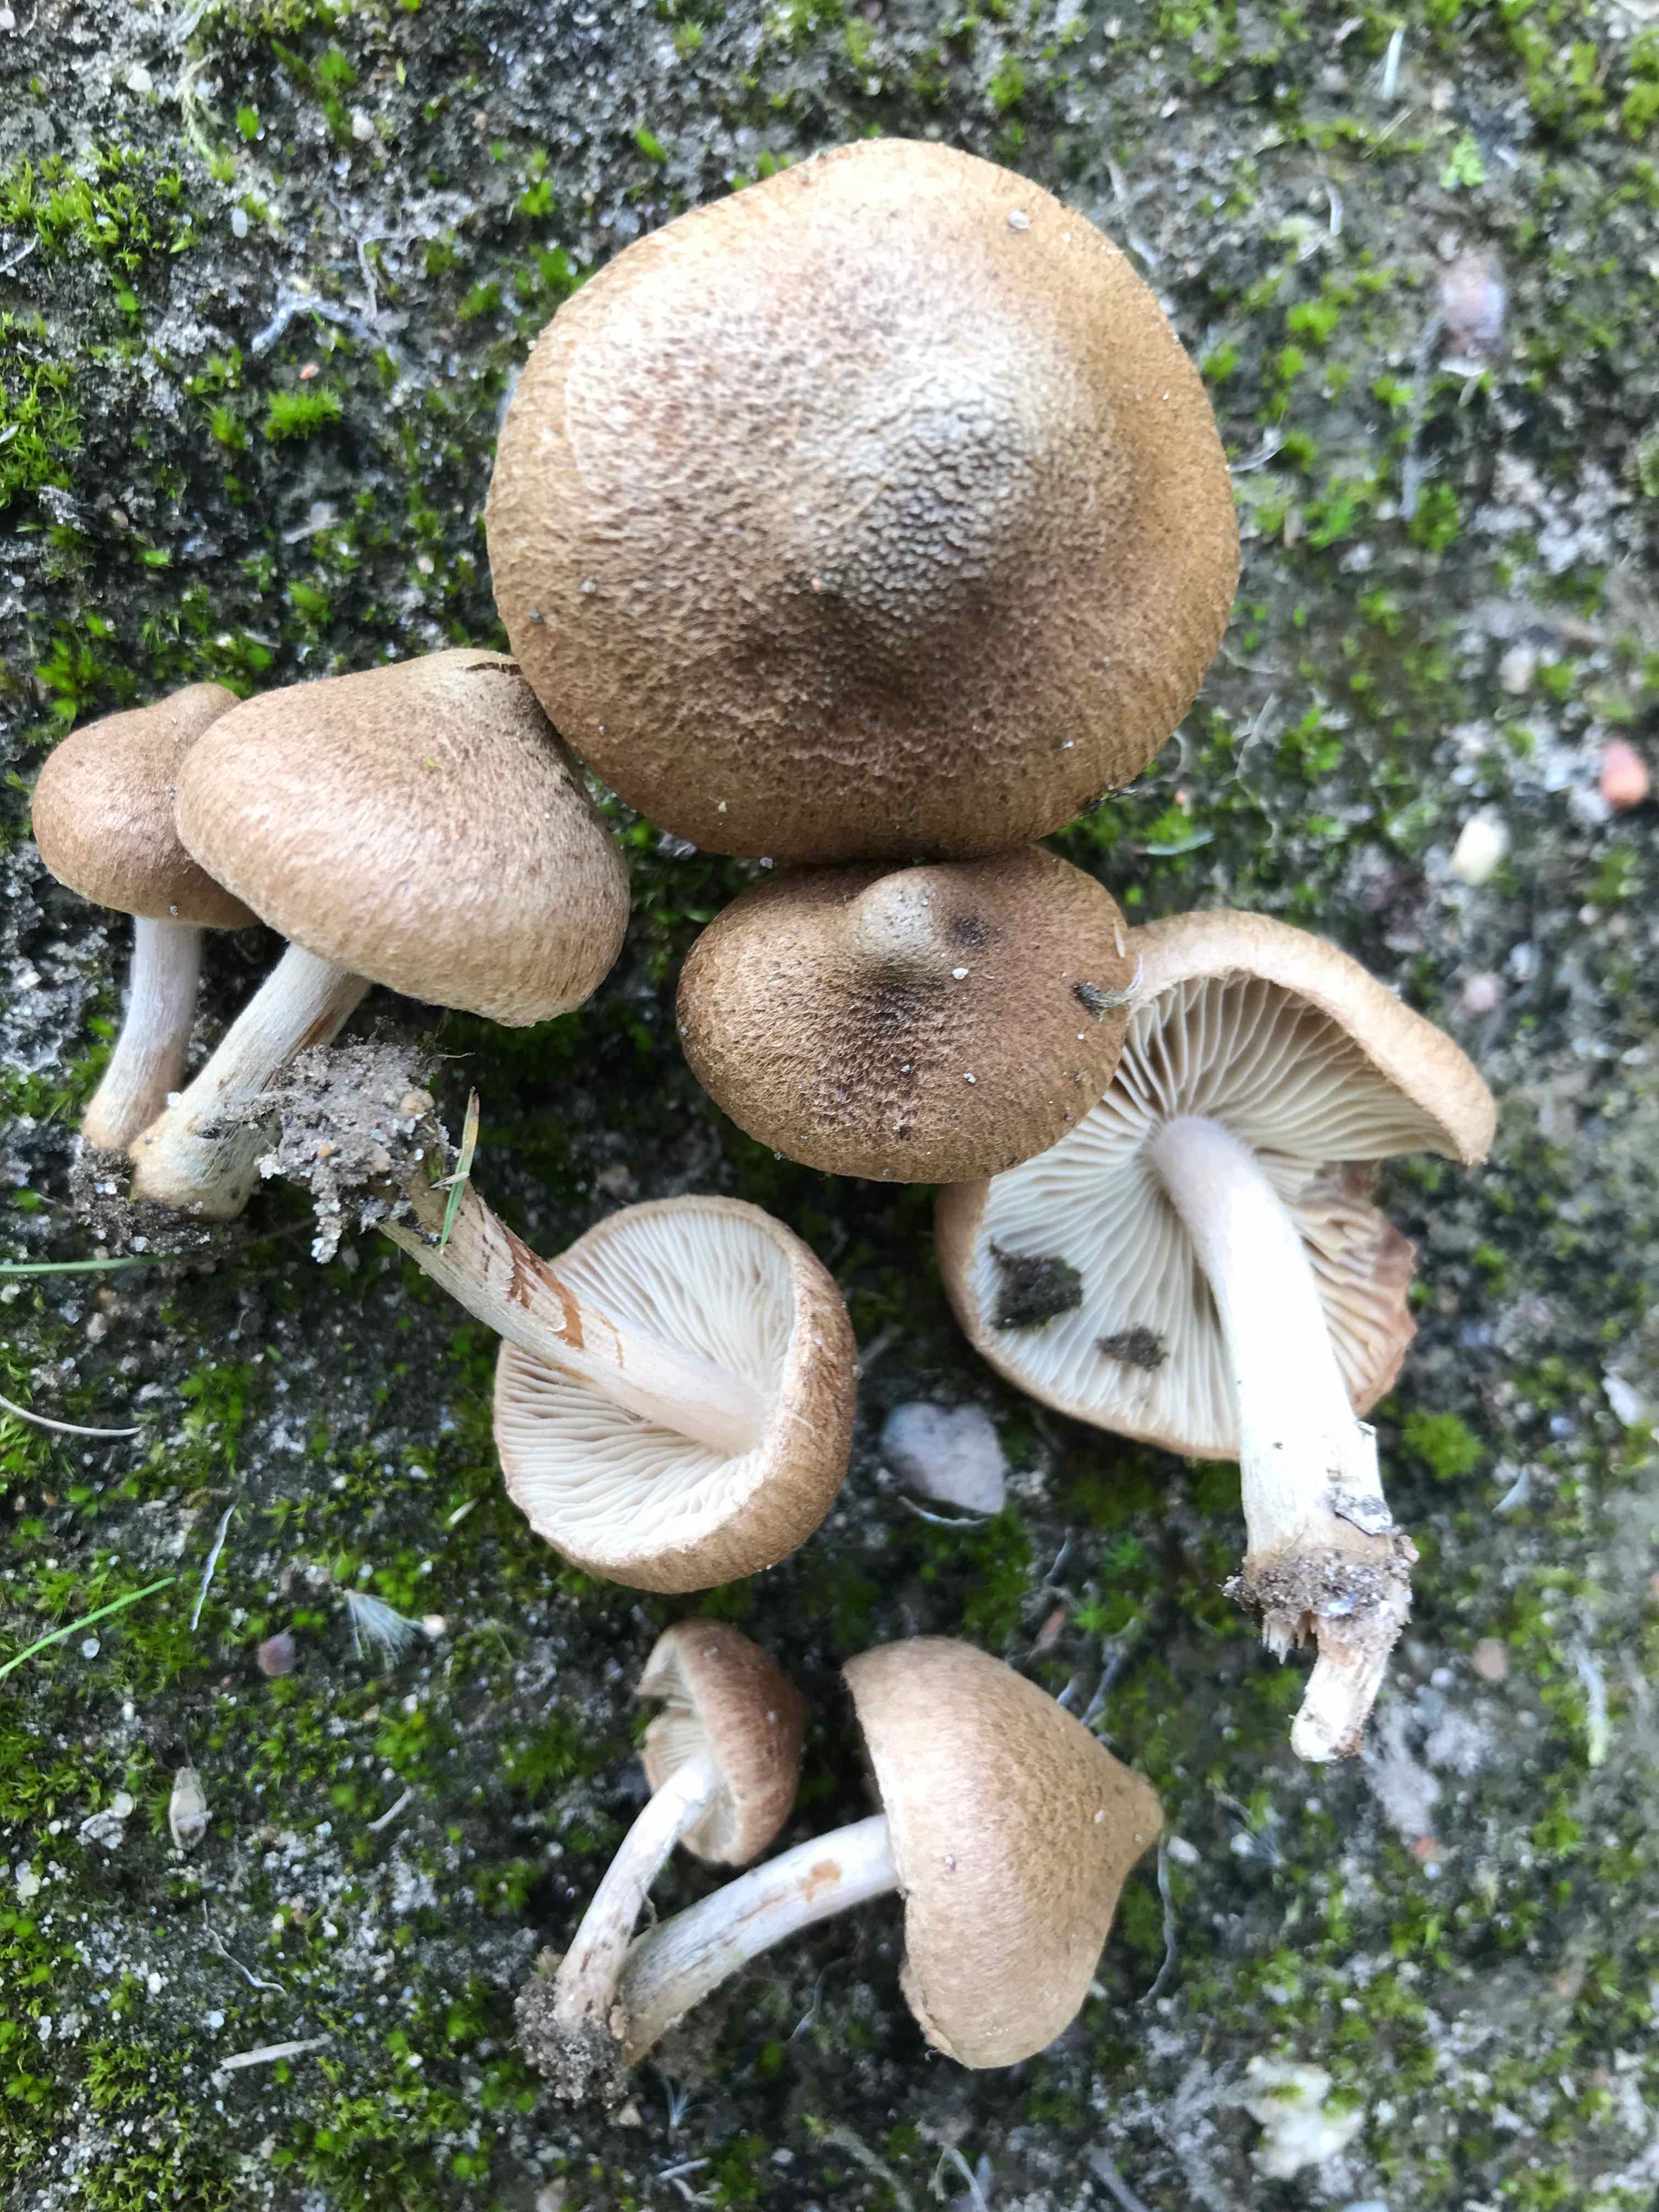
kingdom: Fungi
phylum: Basidiomycota
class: Agaricomycetes
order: Agaricales
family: Inocybaceae
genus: Inocybe
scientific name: Inocybe moravica
